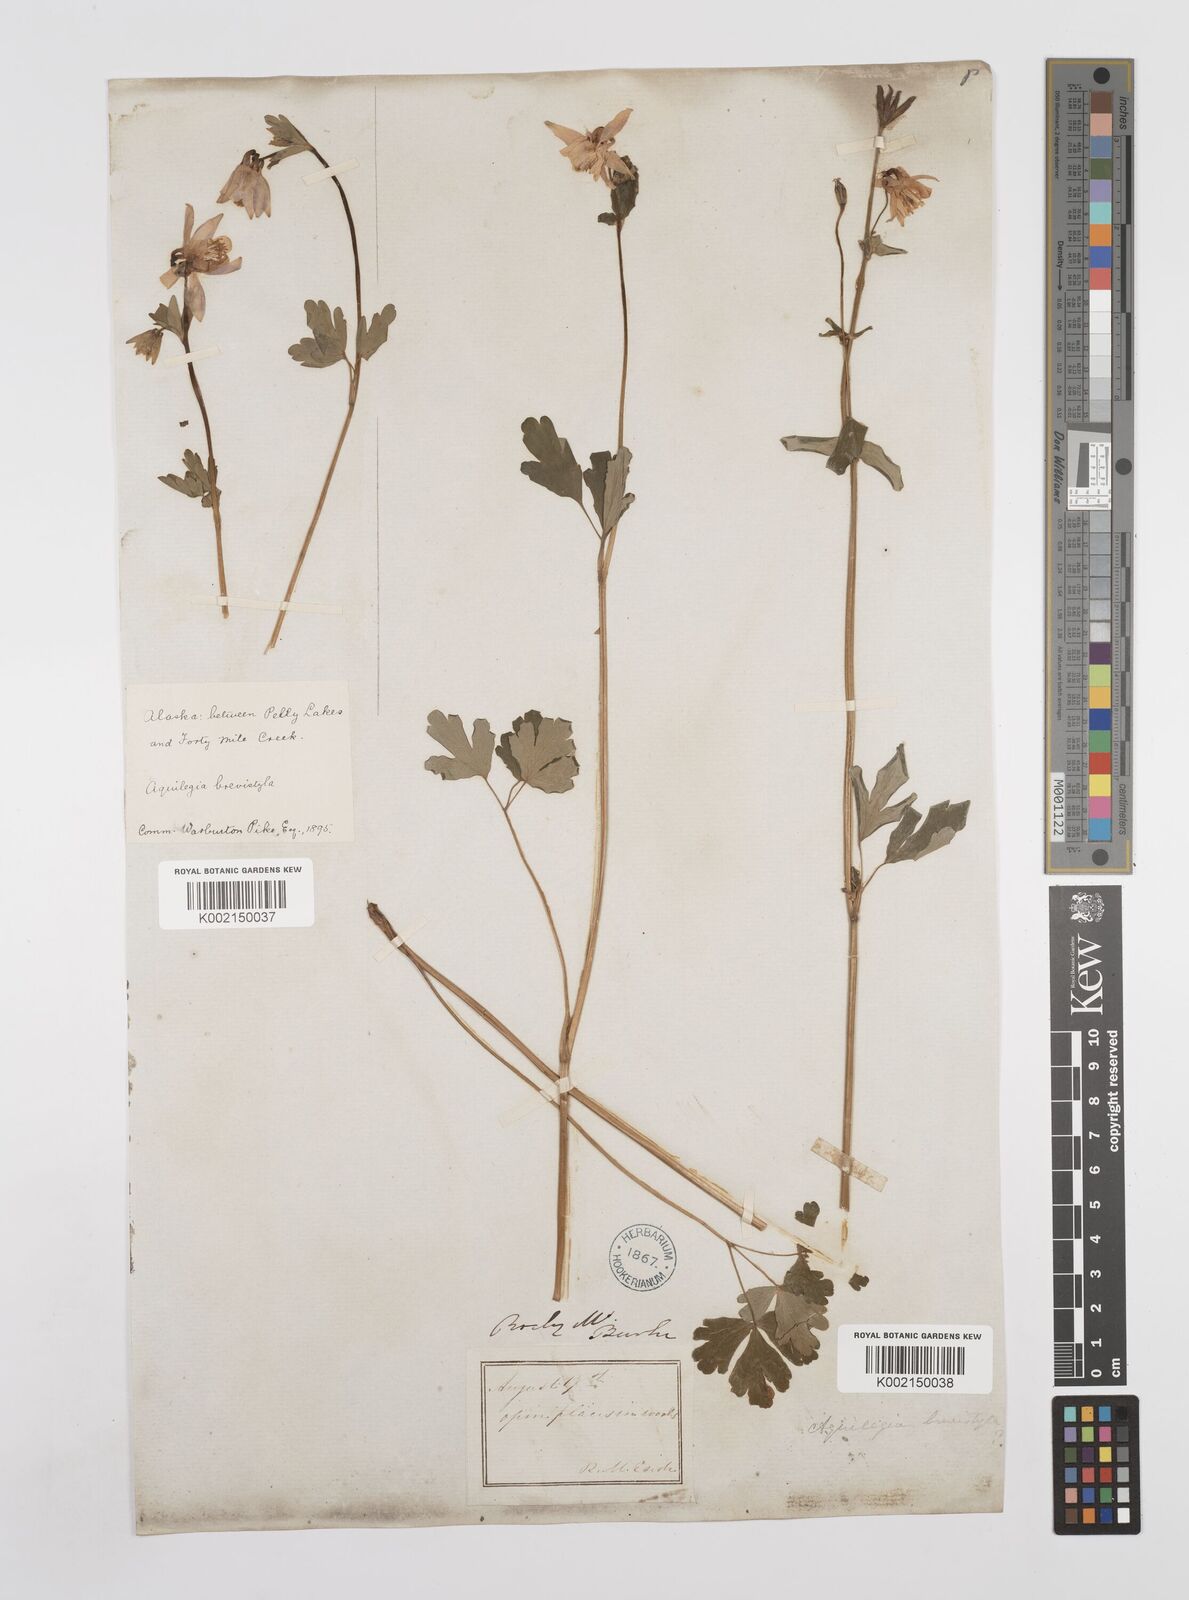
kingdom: Plantae
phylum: Tracheophyta
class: Magnoliopsida
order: Ranunculales
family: Ranunculaceae
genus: Aquilegia
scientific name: Aquilegia brevistyla
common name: Yukon columbine
